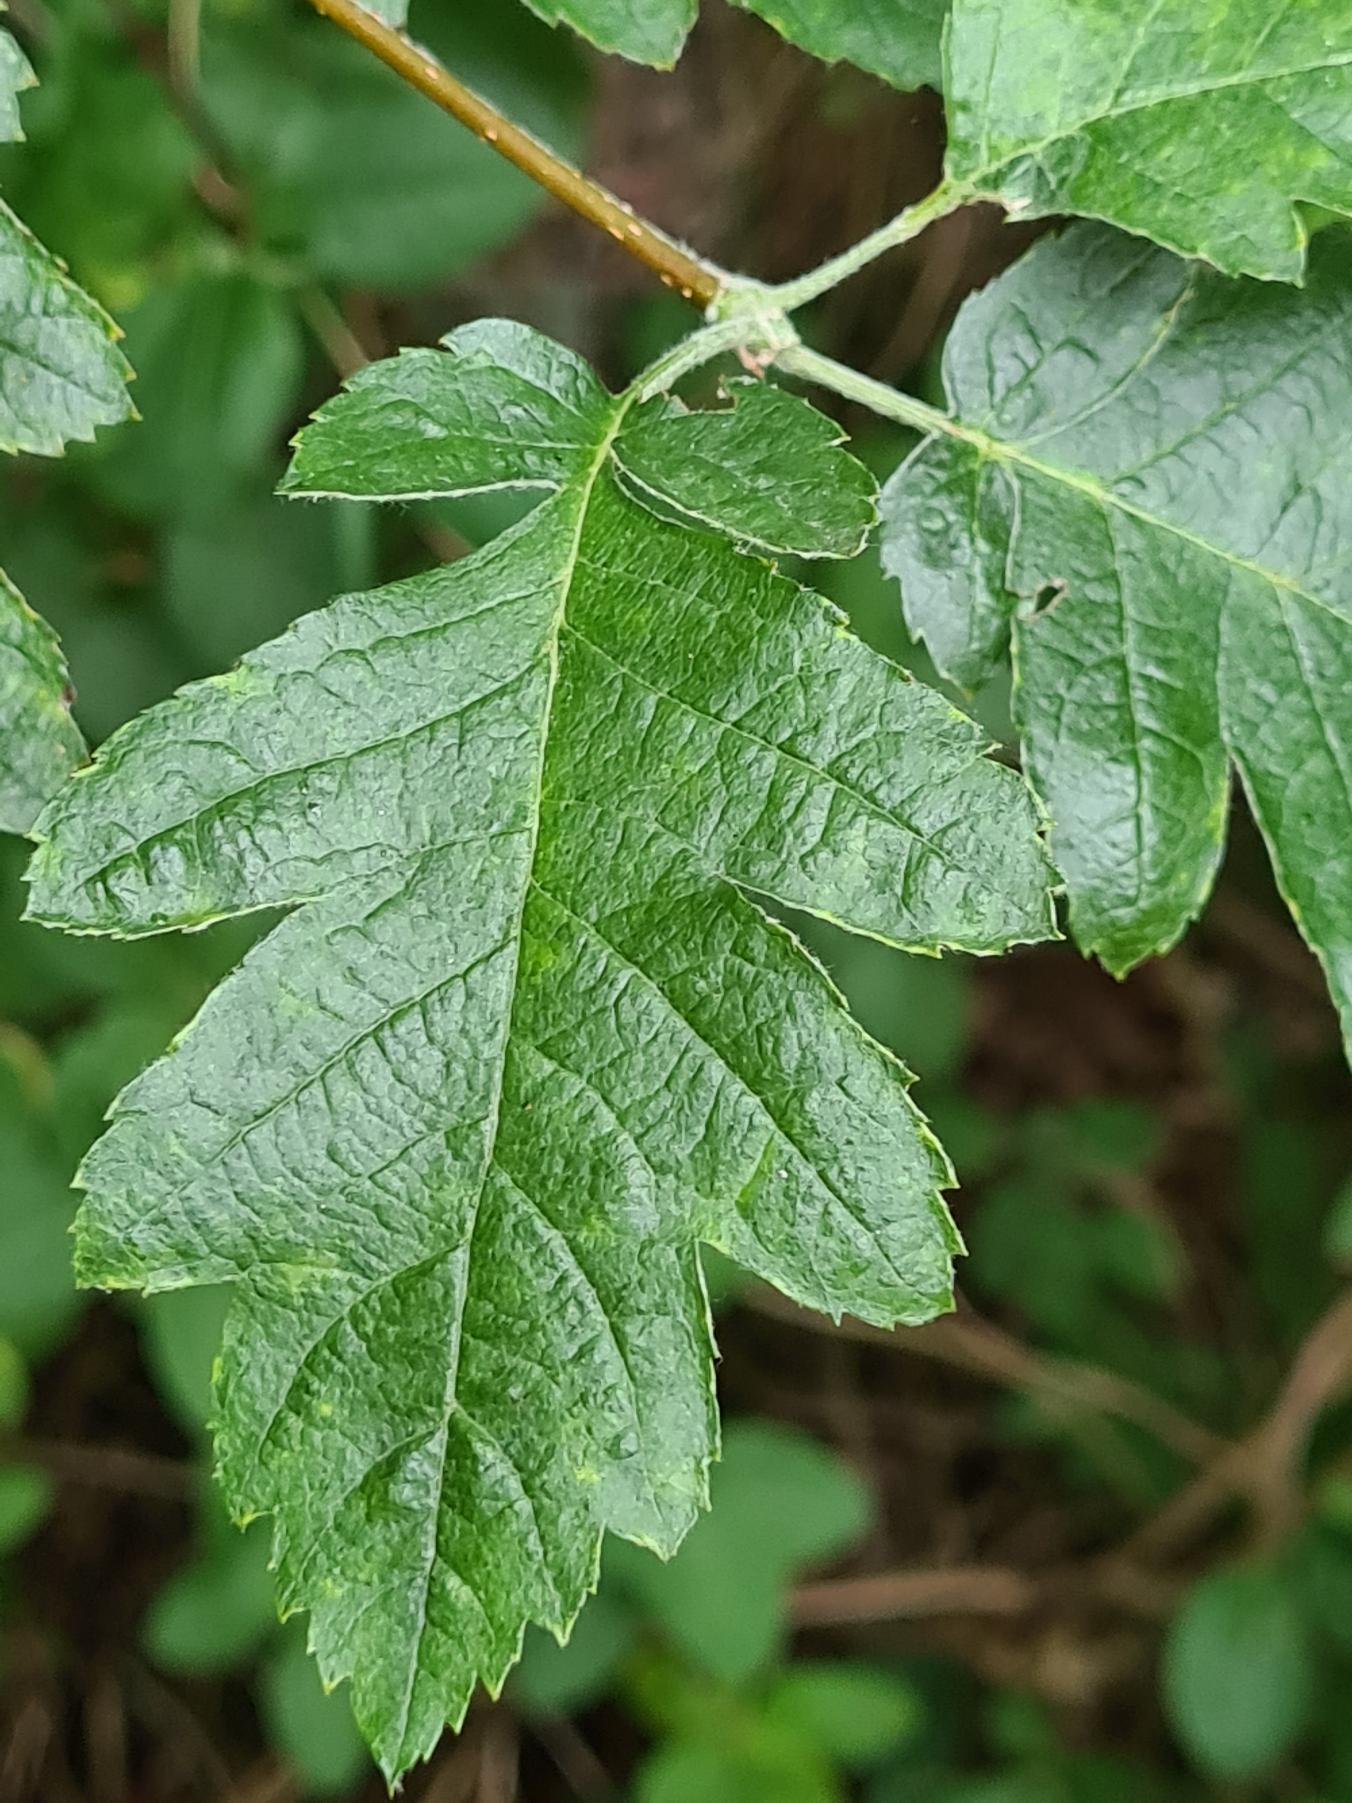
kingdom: Plantae
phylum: Tracheophyta
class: Magnoliopsida
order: Rosales
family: Rosaceae
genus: Scandosorbus
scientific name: Scandosorbus intermedia
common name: Selje-røn
